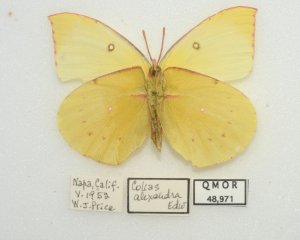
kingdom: Animalia
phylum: Arthropoda
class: Insecta
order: Lepidoptera
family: Pieridae
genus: Colias
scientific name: Colias alexandra
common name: Queen Alexandra's Sulphur
